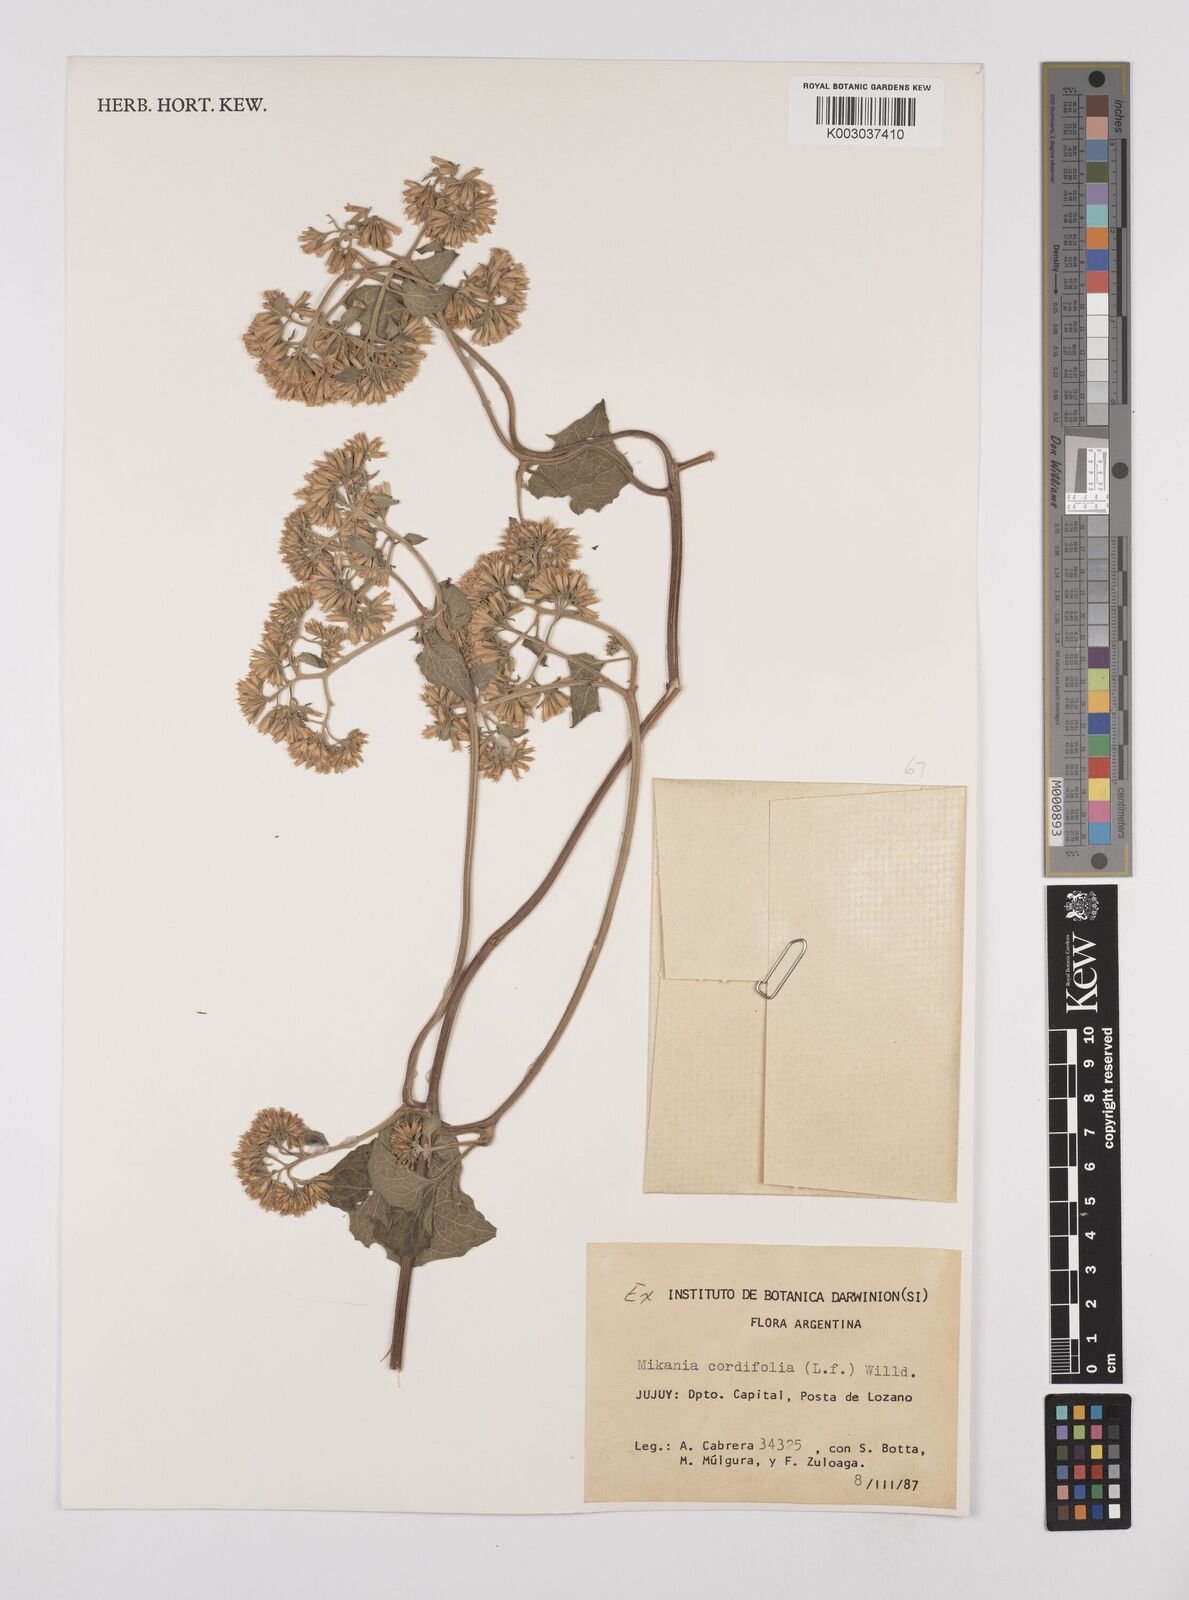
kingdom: Plantae
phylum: Tracheophyta
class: Magnoliopsida
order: Asterales
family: Asteraceae
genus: Mikania
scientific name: Mikania cordifolia
